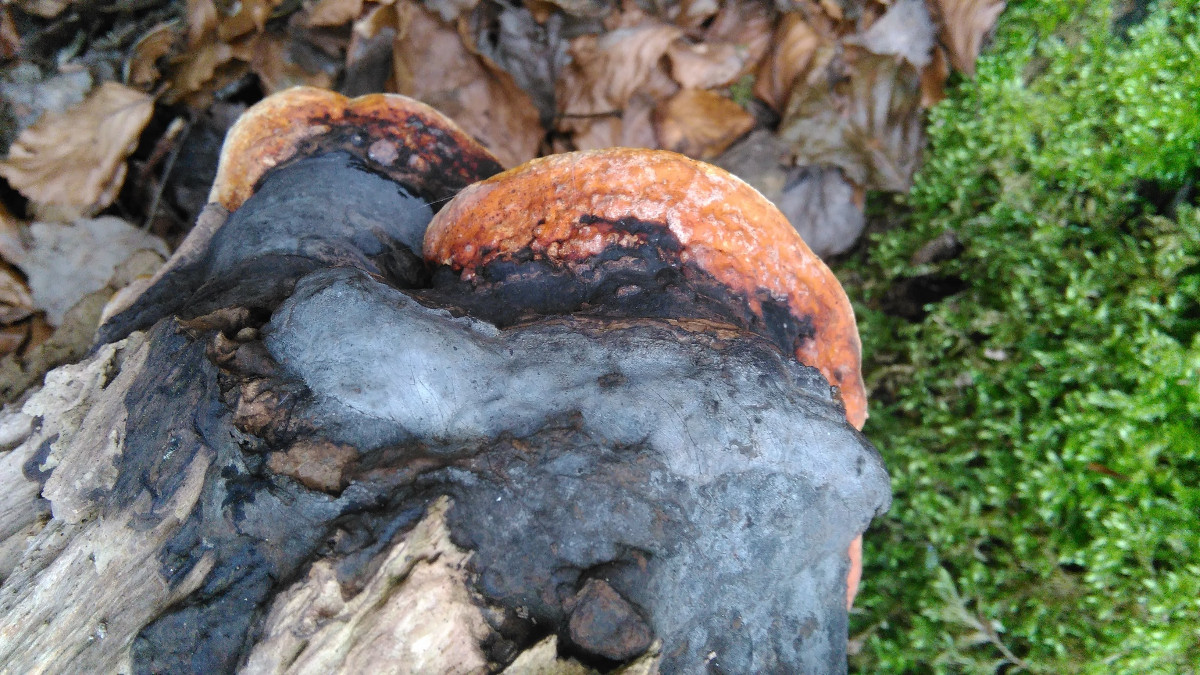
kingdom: Fungi
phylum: Basidiomycota
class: Agaricomycetes
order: Polyporales
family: Fomitopsidaceae
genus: Fomitopsis
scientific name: Fomitopsis pinicola
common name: randbæltet hovporesvamp
